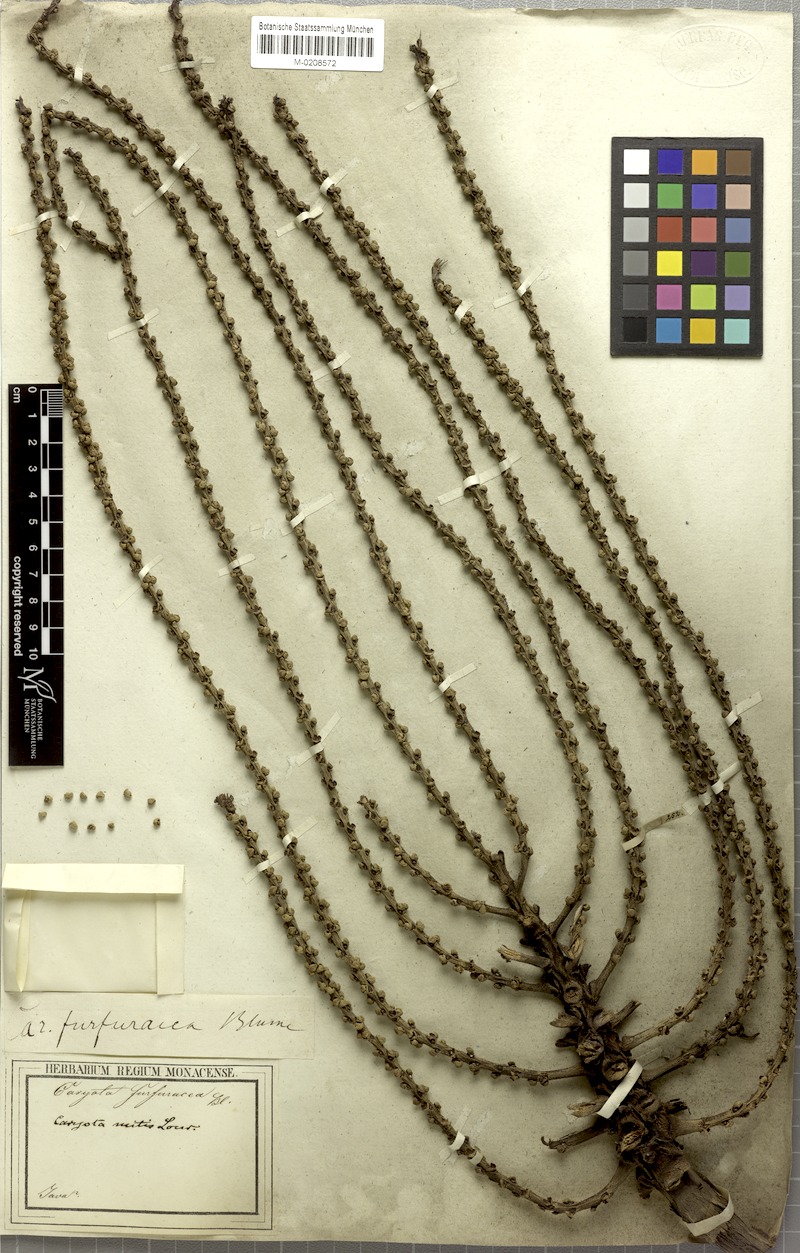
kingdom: Plantae
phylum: Tracheophyta
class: Liliopsida
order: Arecales
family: Arecaceae
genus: Caryota
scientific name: Caryota mitis
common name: Burmese fishtail palm
